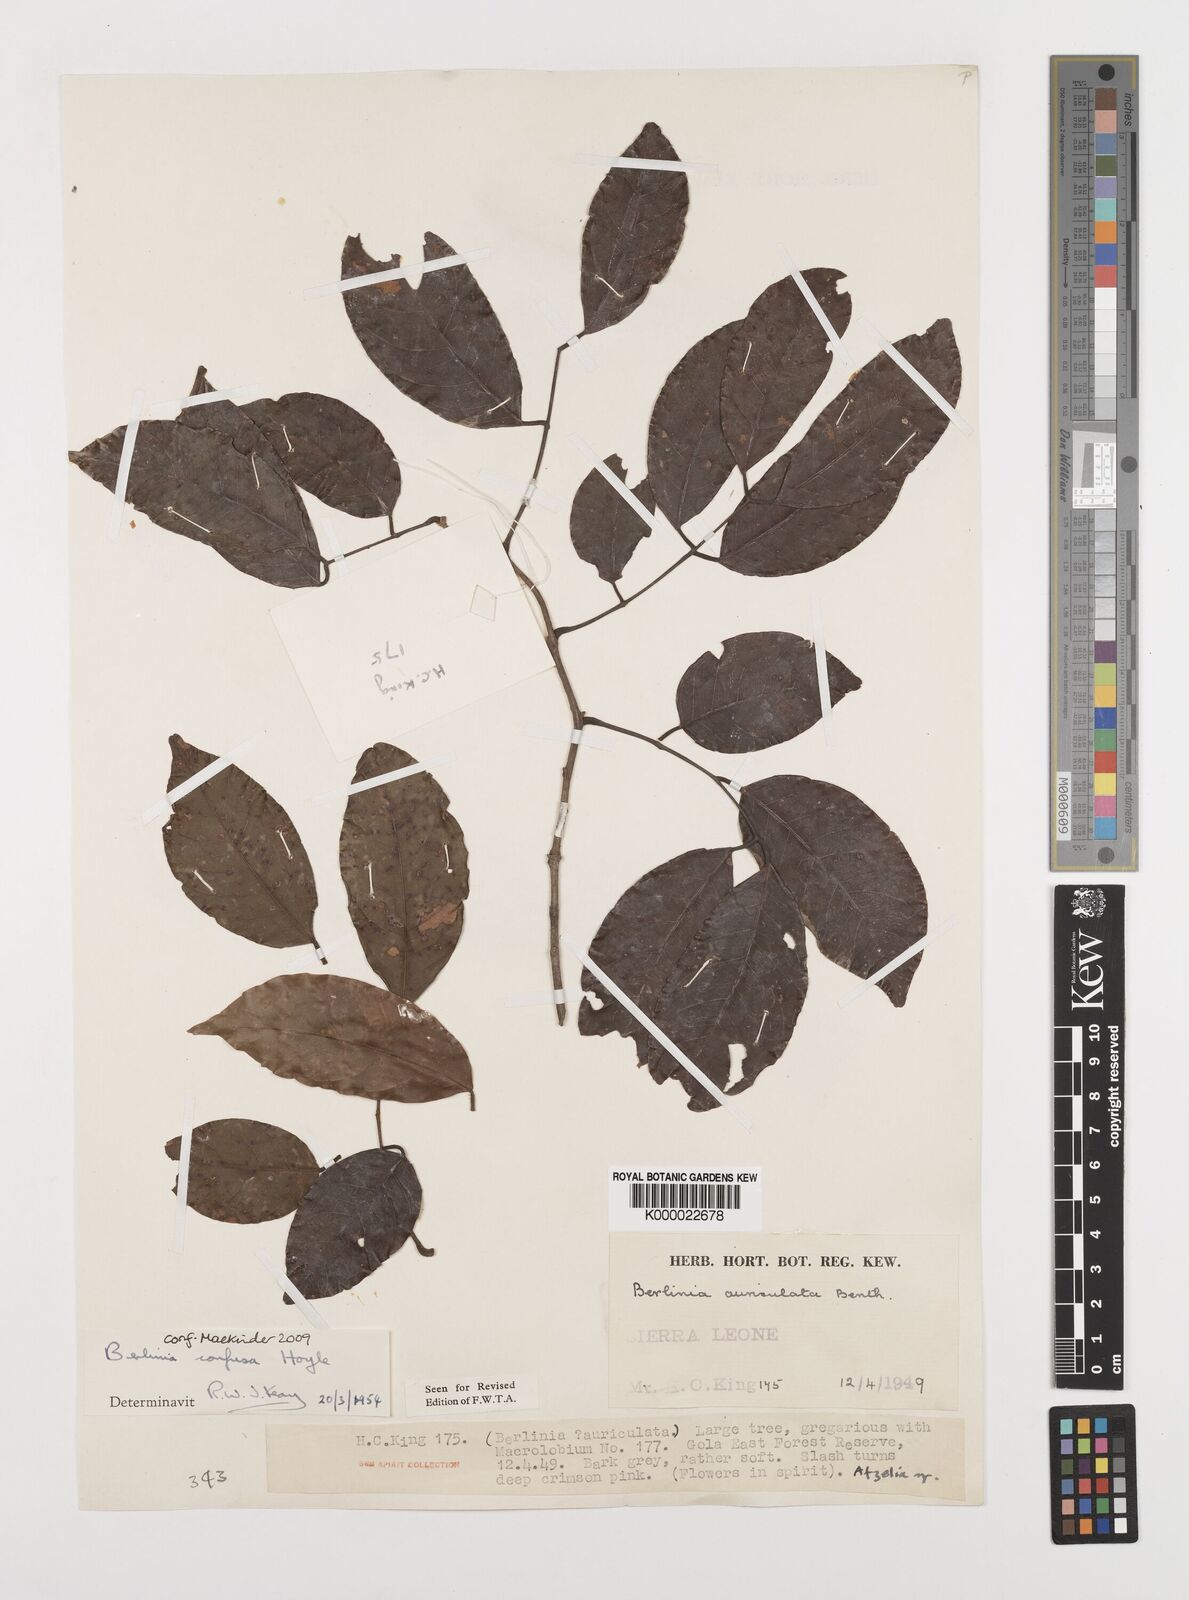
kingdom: Plantae
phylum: Tracheophyta
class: Magnoliopsida
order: Fabales
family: Fabaceae
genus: Berlinia
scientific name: Berlinia
